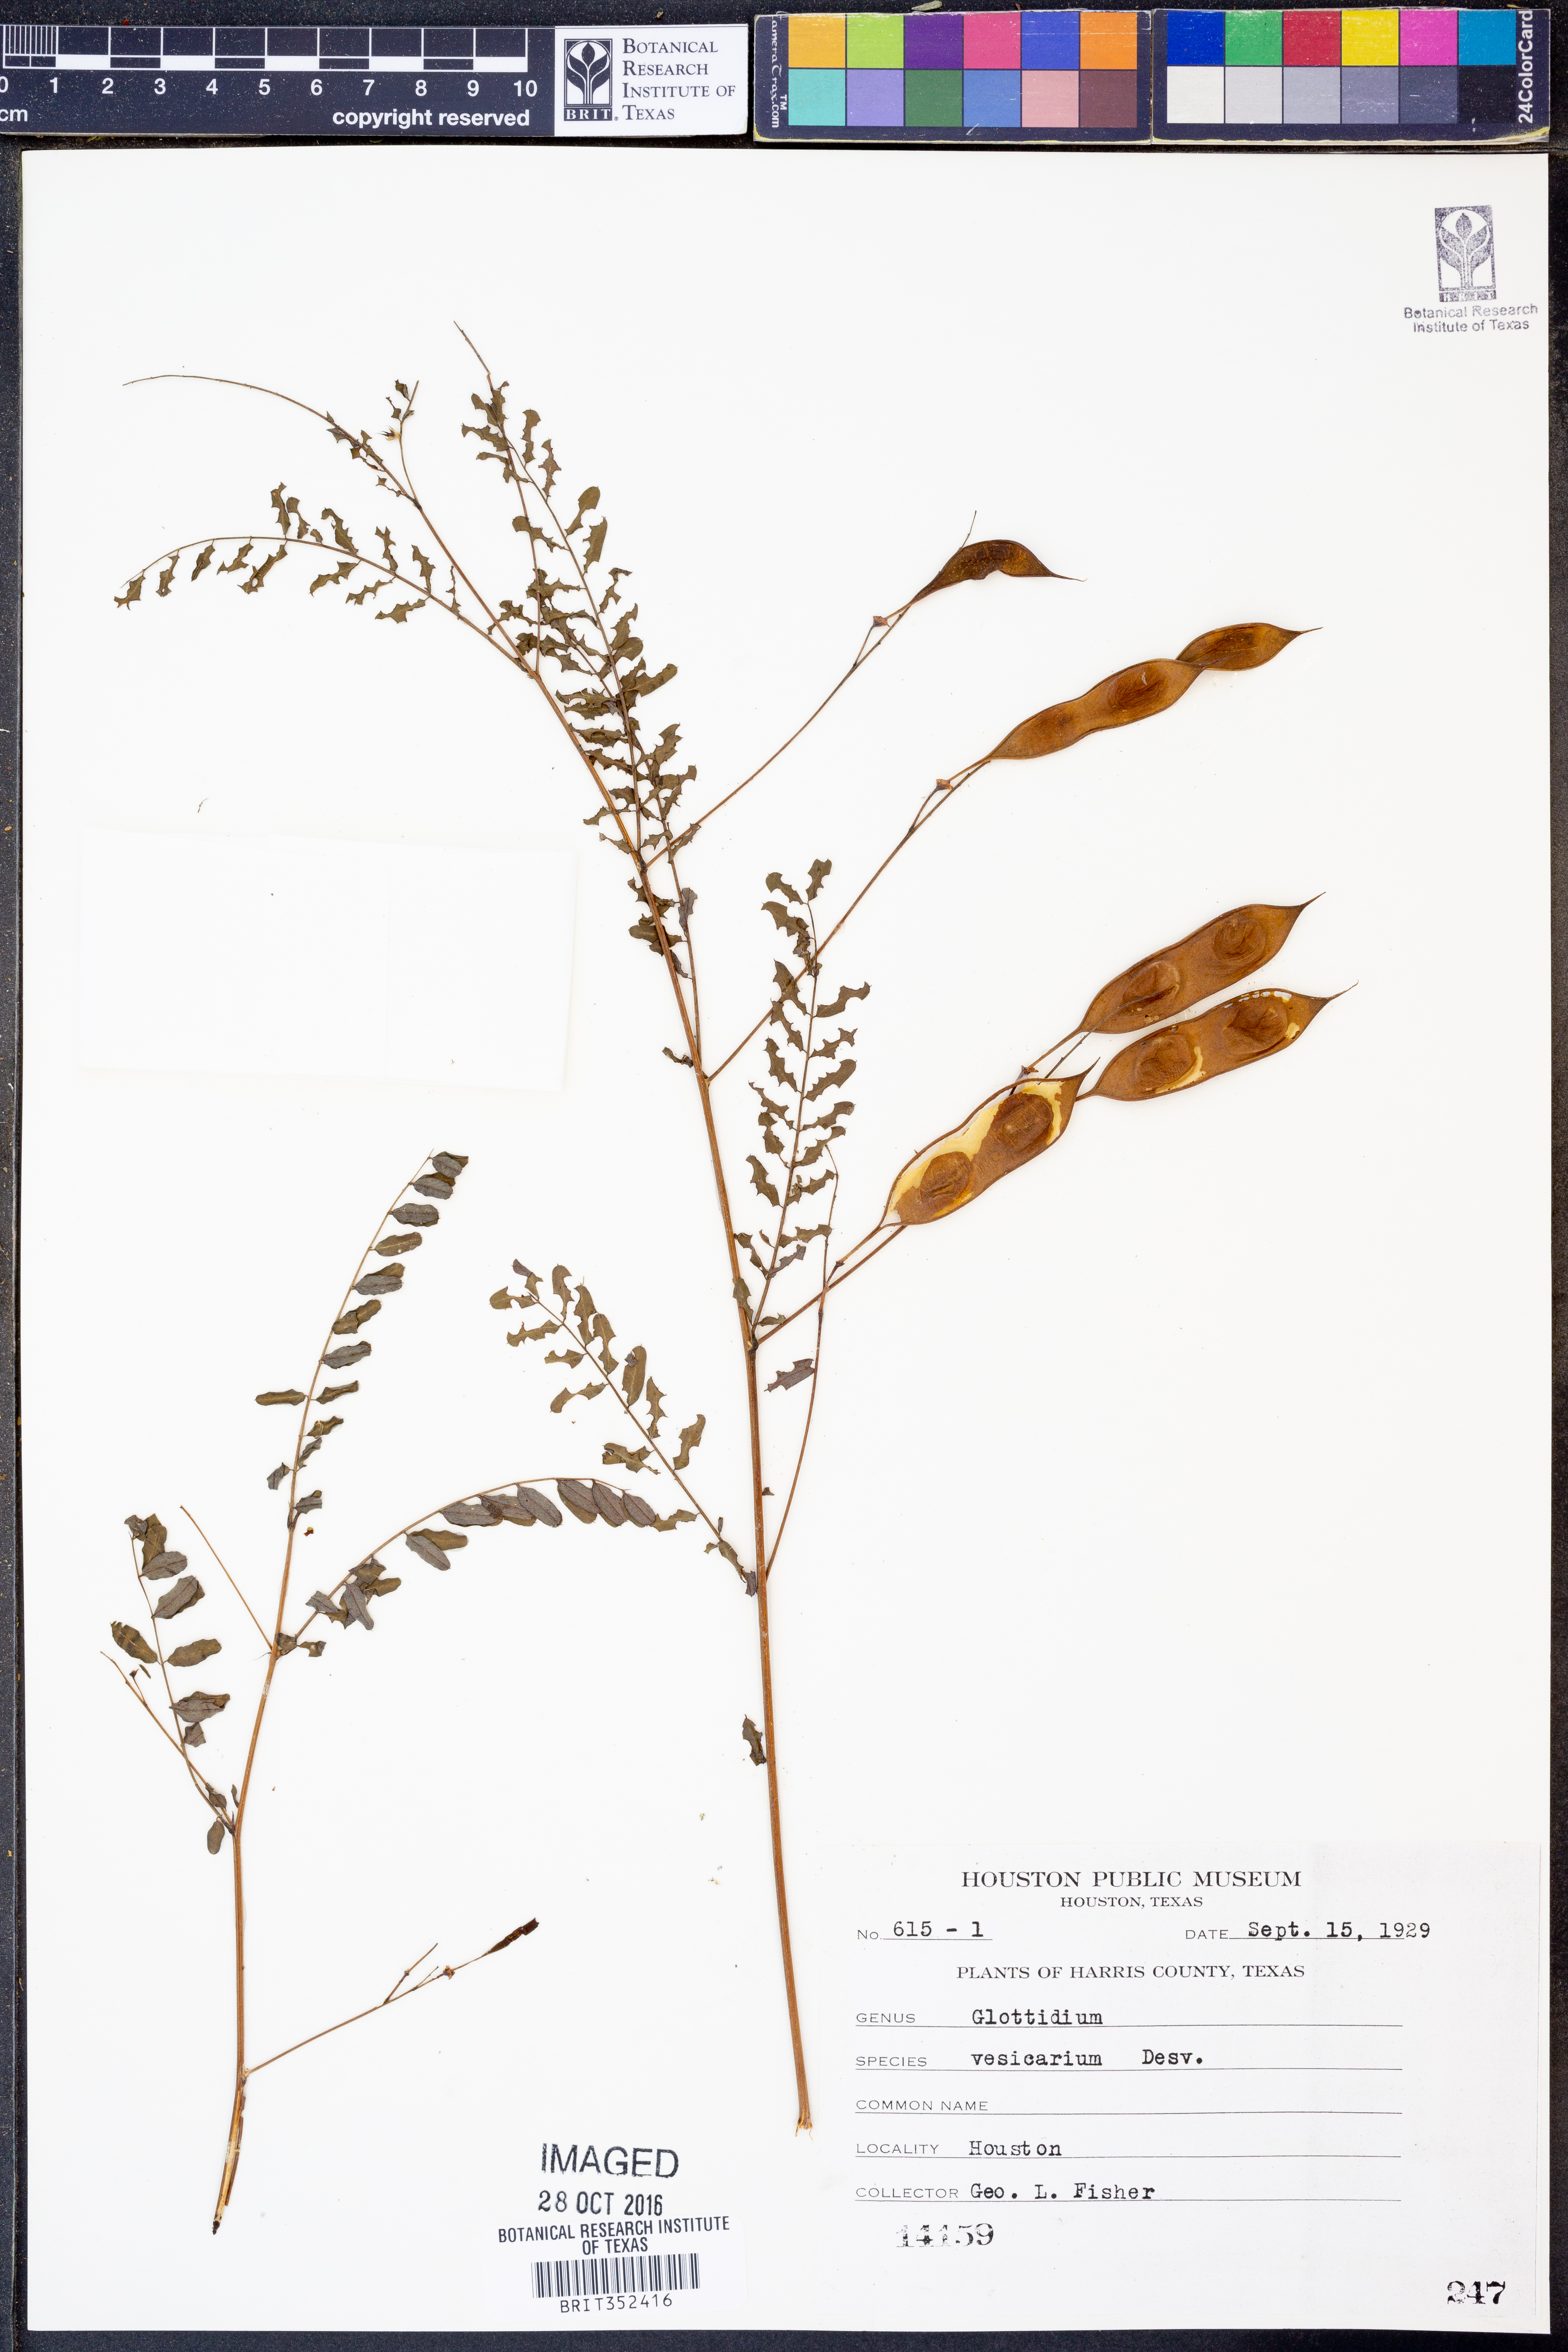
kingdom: Plantae
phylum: Tracheophyta
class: Magnoliopsida
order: Fabales
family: Fabaceae
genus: Sesbania
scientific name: Sesbania vesicaria
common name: Bagpod
